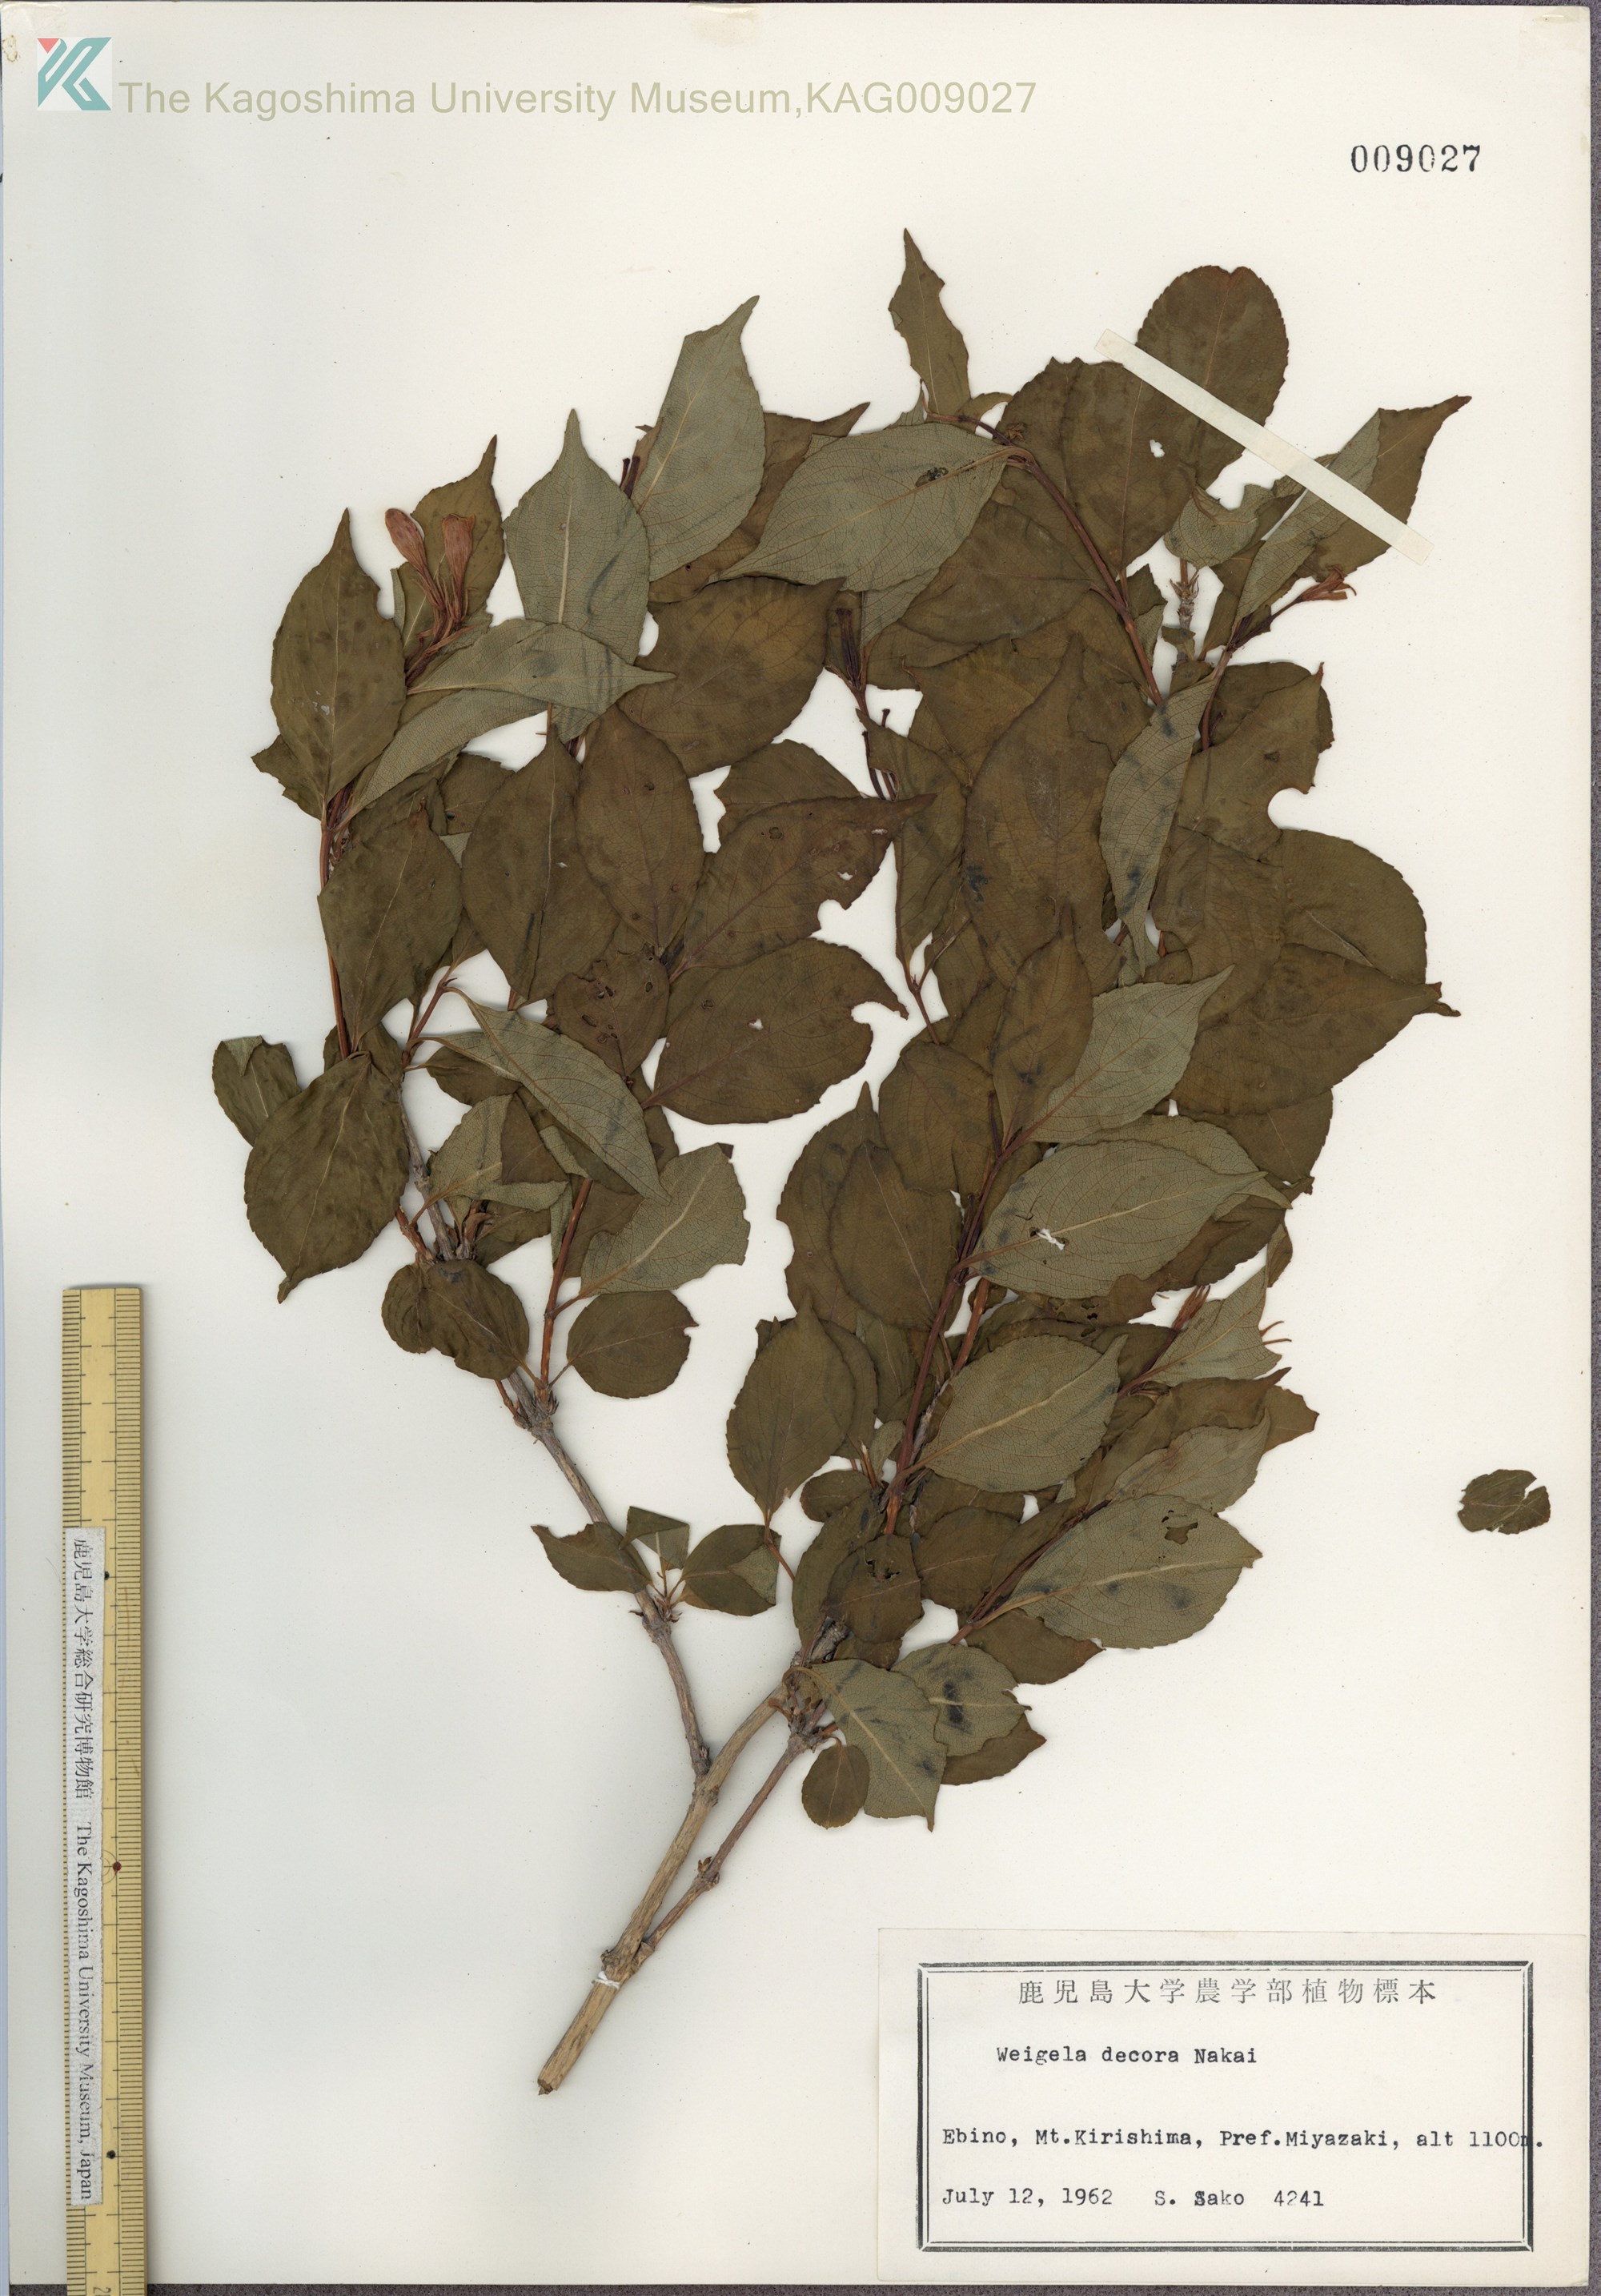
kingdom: Plantae
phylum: Tracheophyta
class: Magnoliopsida
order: Dipsacales
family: Caprifoliaceae
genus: Weigela
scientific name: Weigela decora
